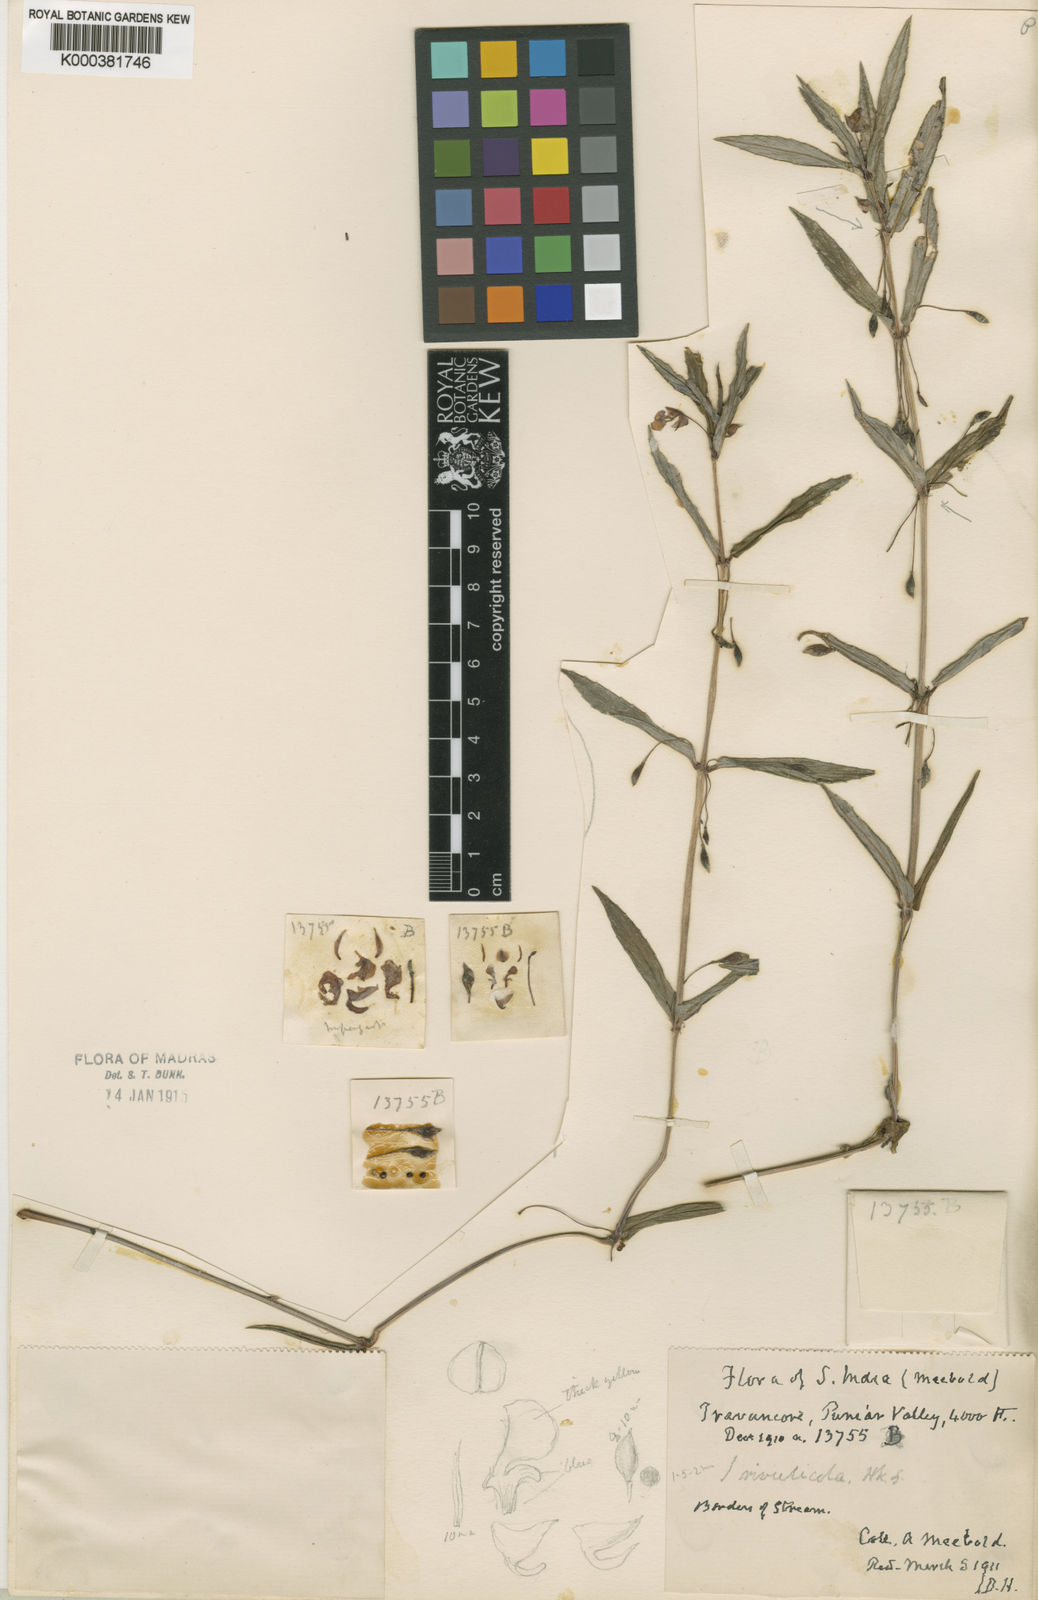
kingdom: Plantae
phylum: Tracheophyta
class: Magnoliopsida
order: Ericales
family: Balsaminaceae
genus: Impatiens
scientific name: Impatiens rivulicola
